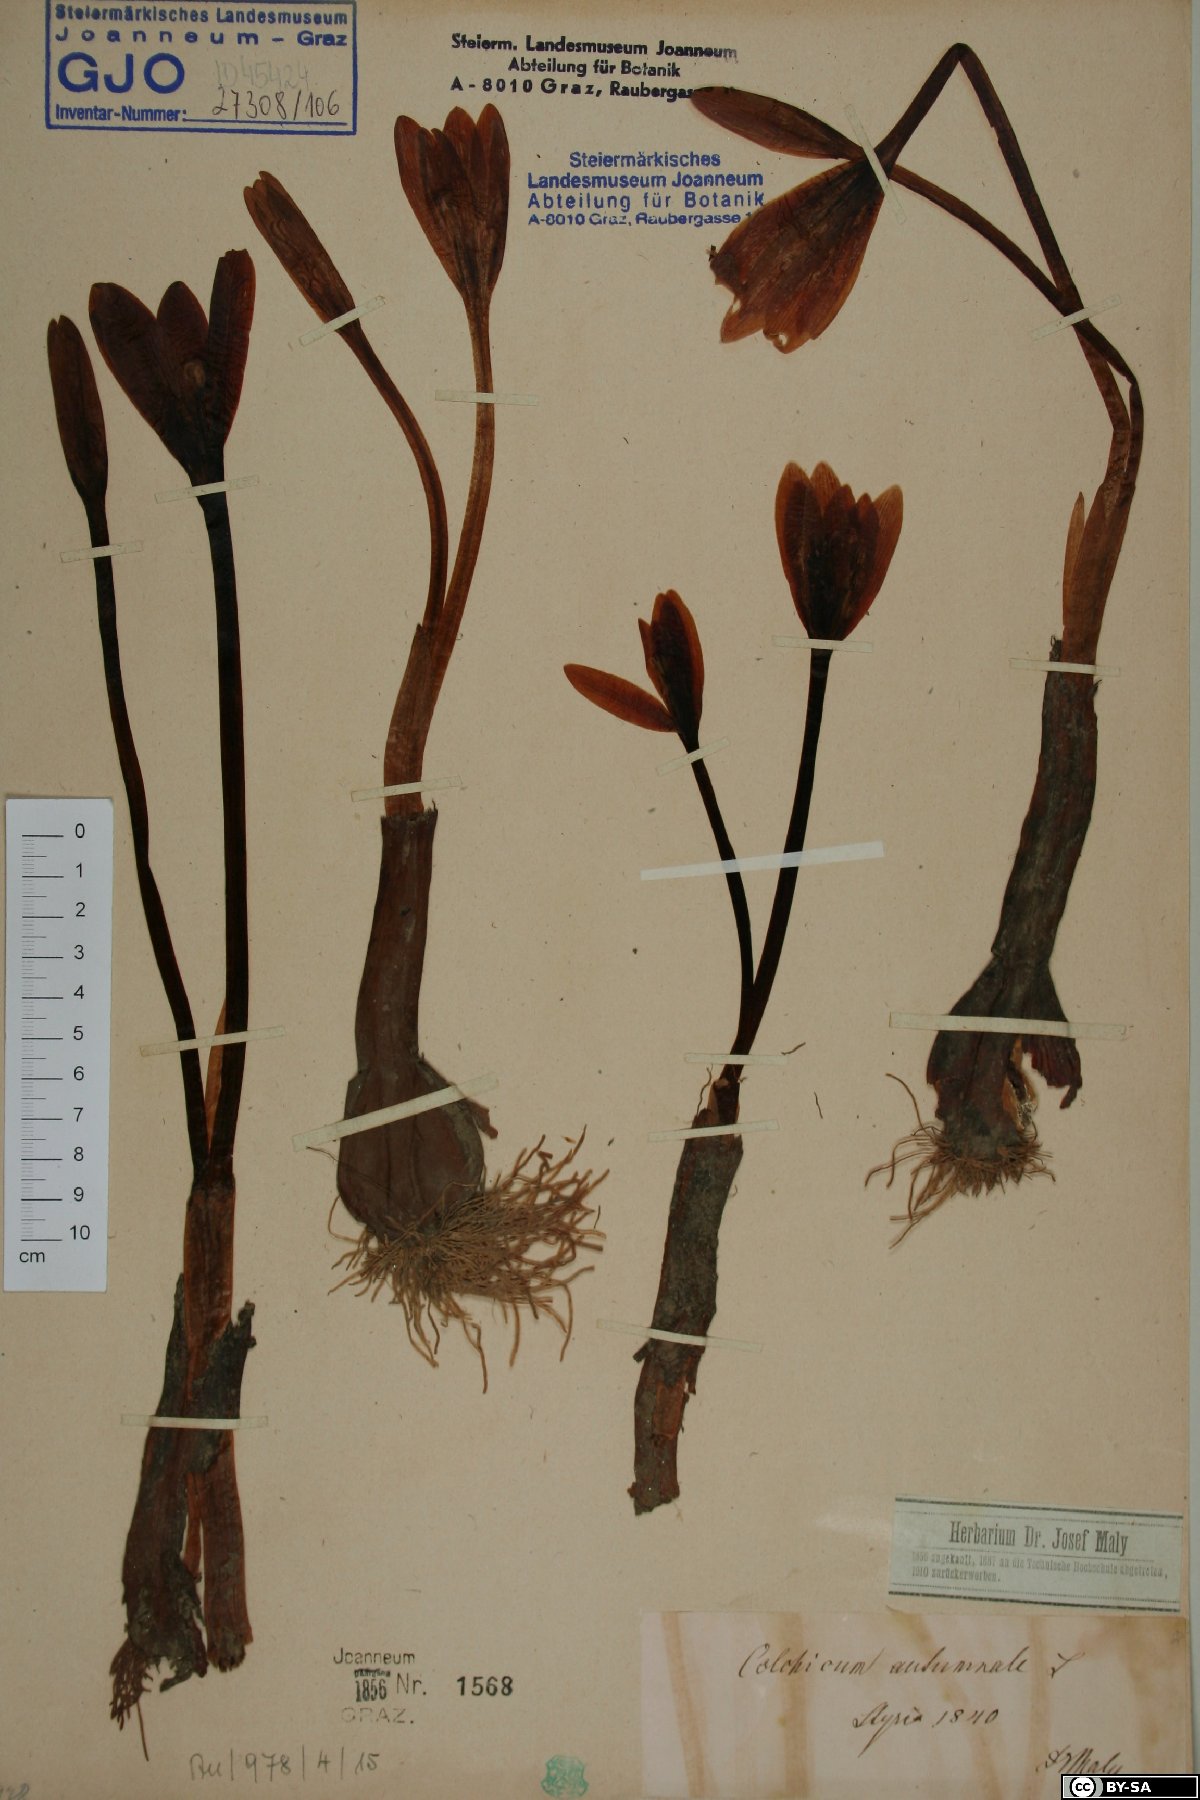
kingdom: Plantae
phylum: Tracheophyta
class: Liliopsida
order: Liliales
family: Colchicaceae
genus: Colchicum
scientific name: Colchicum autumnale
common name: Autumn crocus
